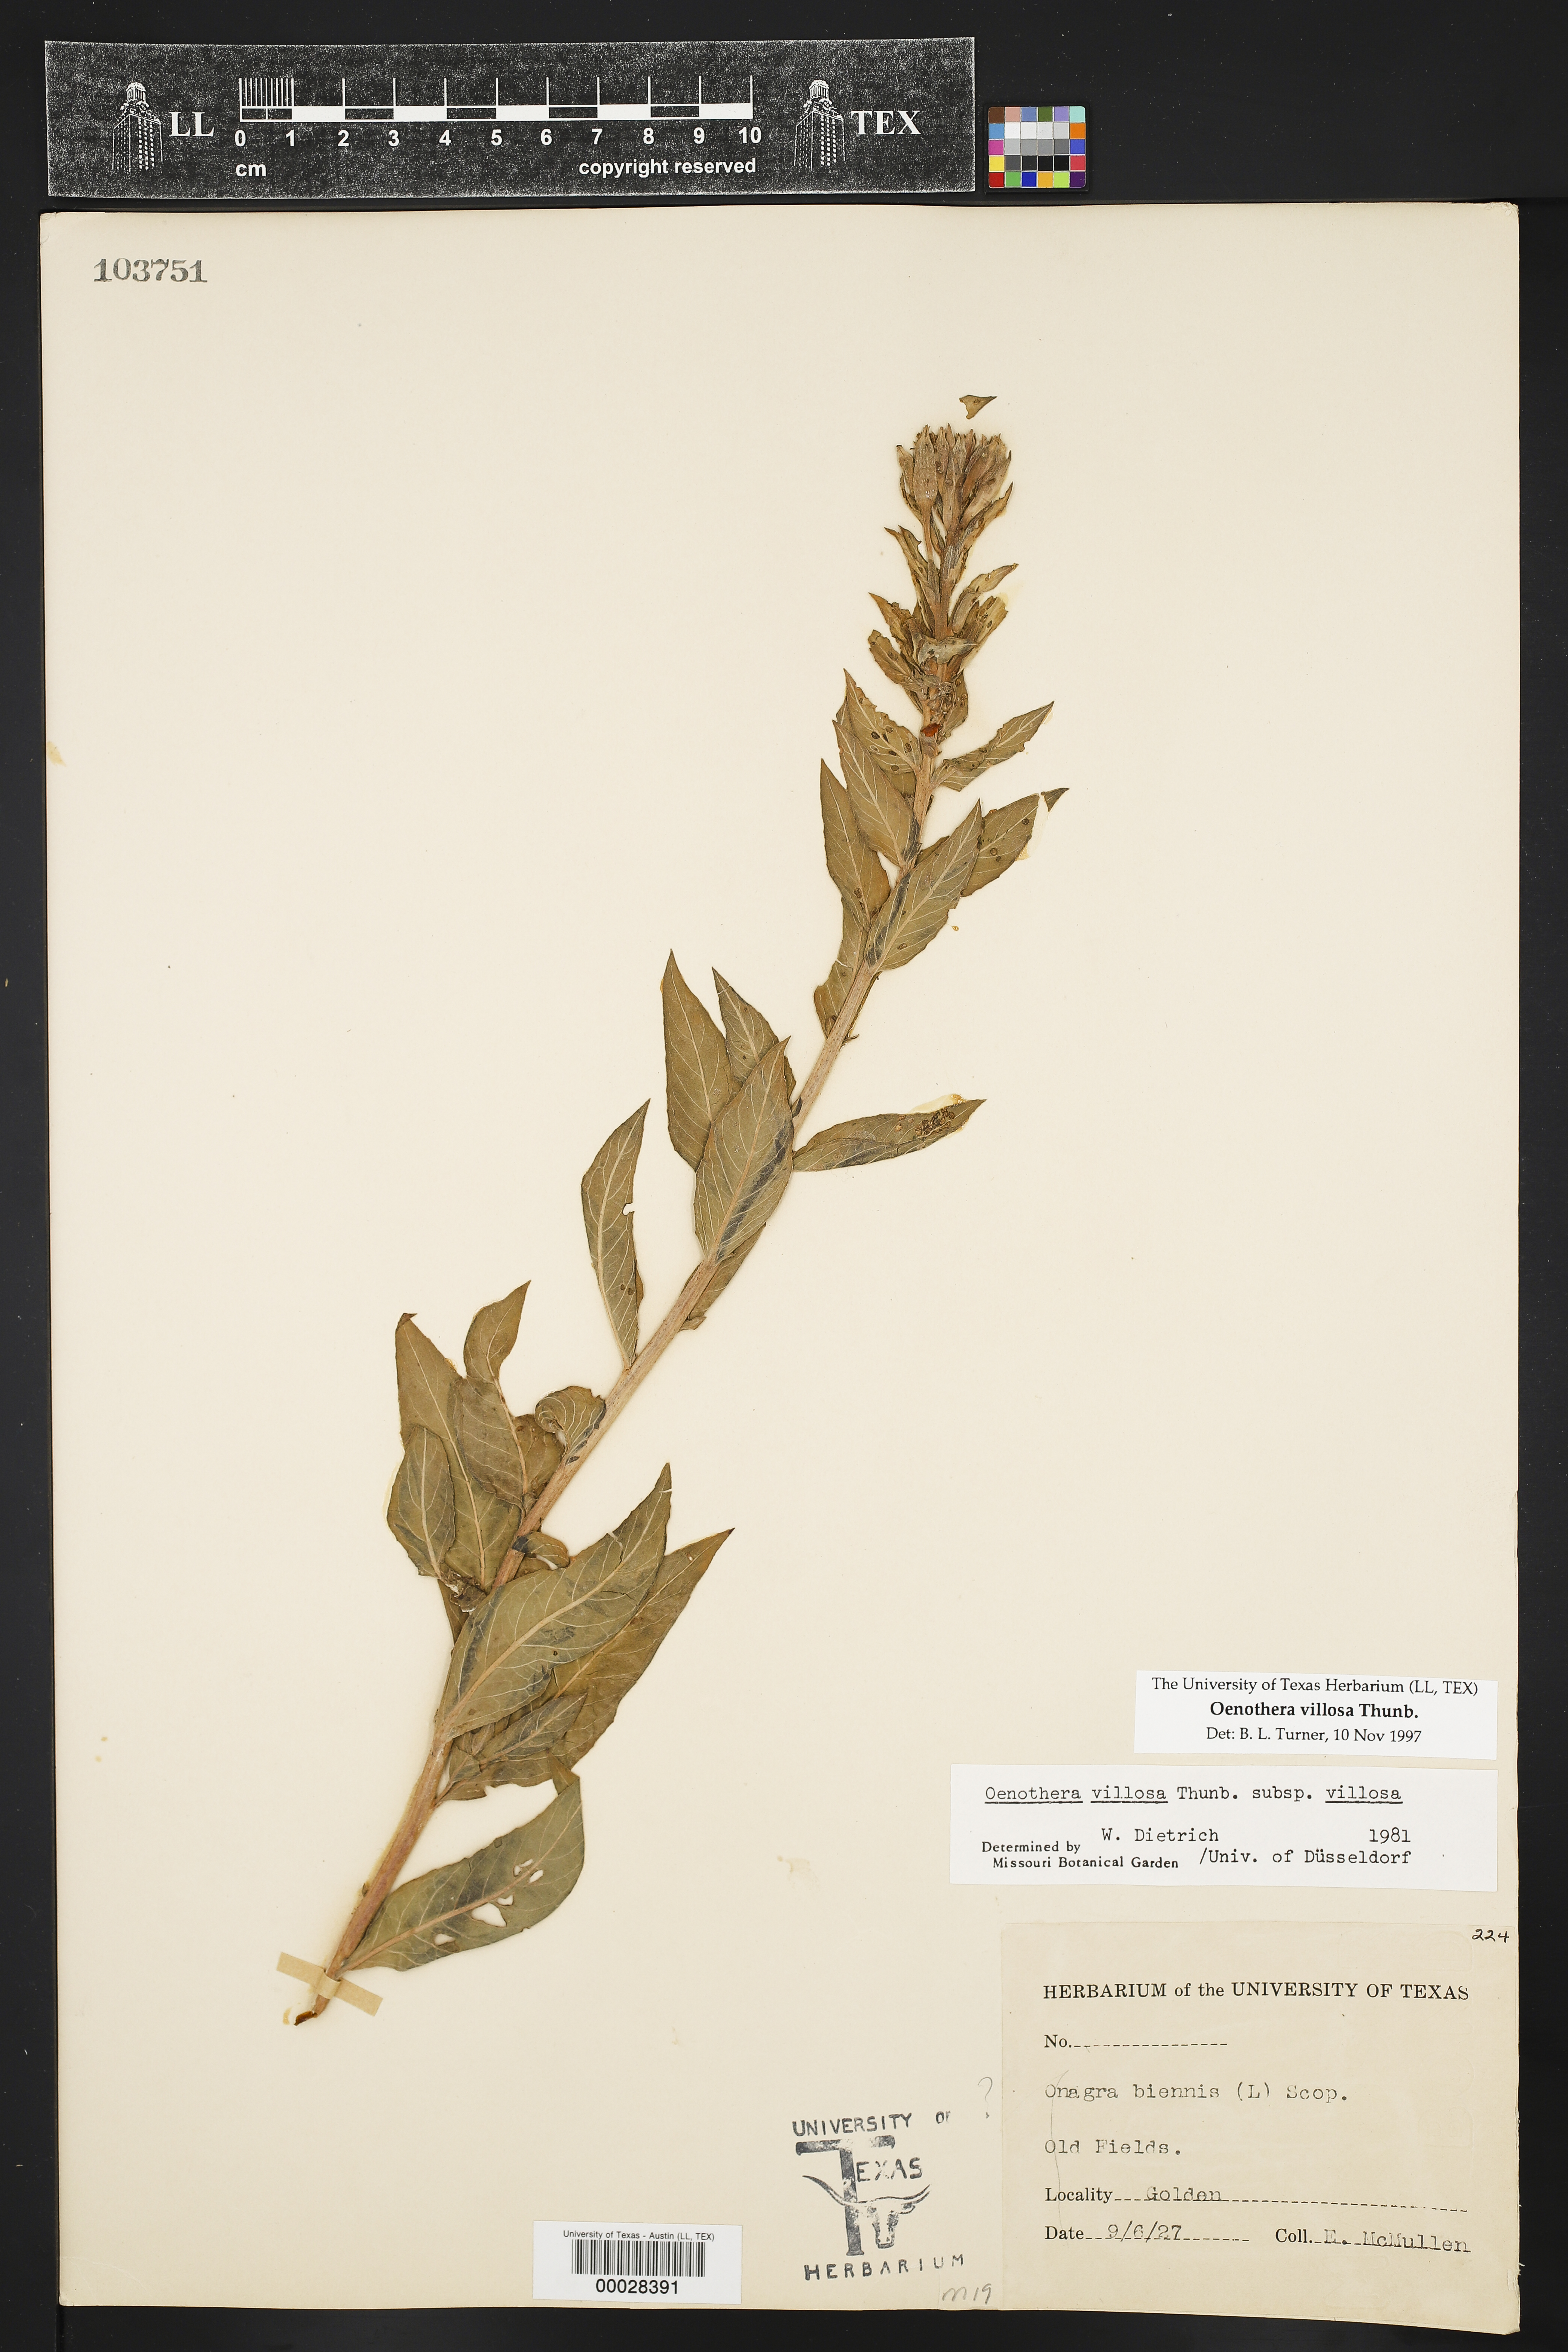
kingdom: Plantae
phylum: Tracheophyta
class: Magnoliopsida
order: Myrtales
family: Onagraceae
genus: Oenothera
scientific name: Oenothera villosa
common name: Hairy evening-primrose
